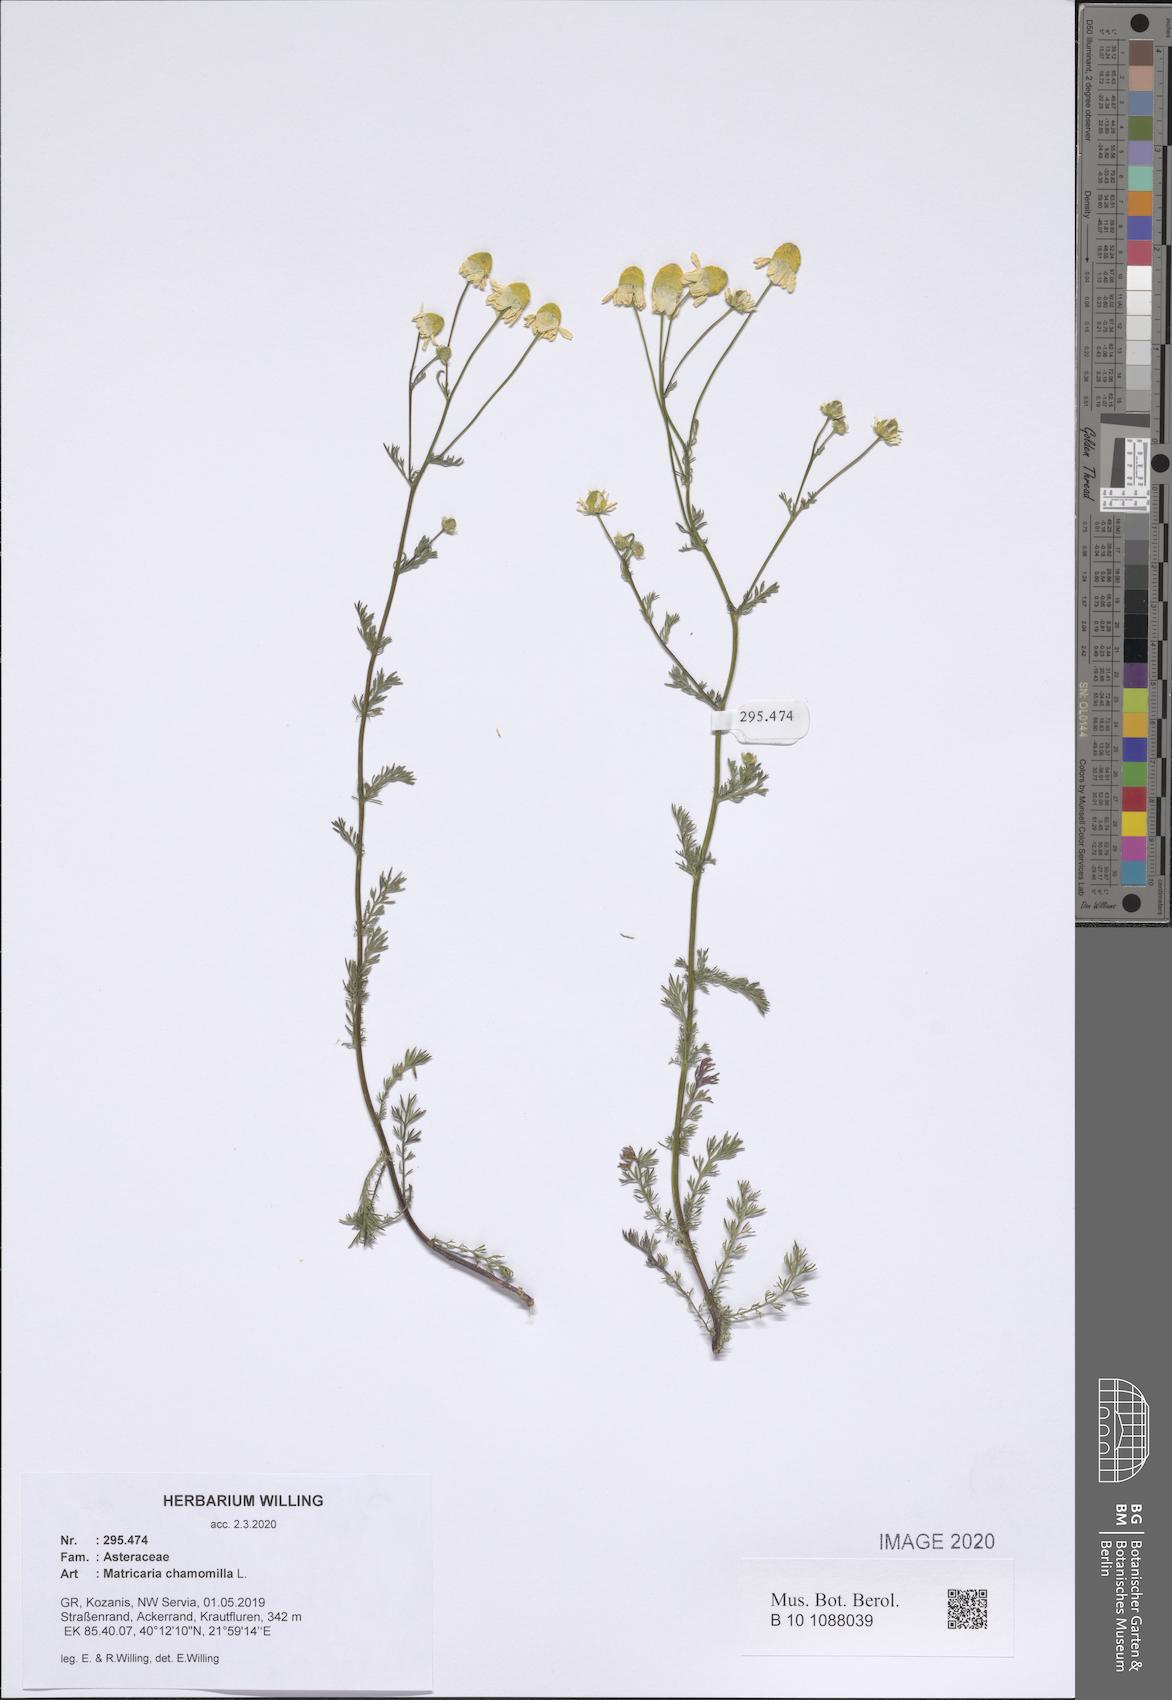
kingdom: Plantae
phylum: Tracheophyta
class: Magnoliopsida
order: Asterales
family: Asteraceae
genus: Matricaria
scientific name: Matricaria chamomilla
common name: Scented mayweed
